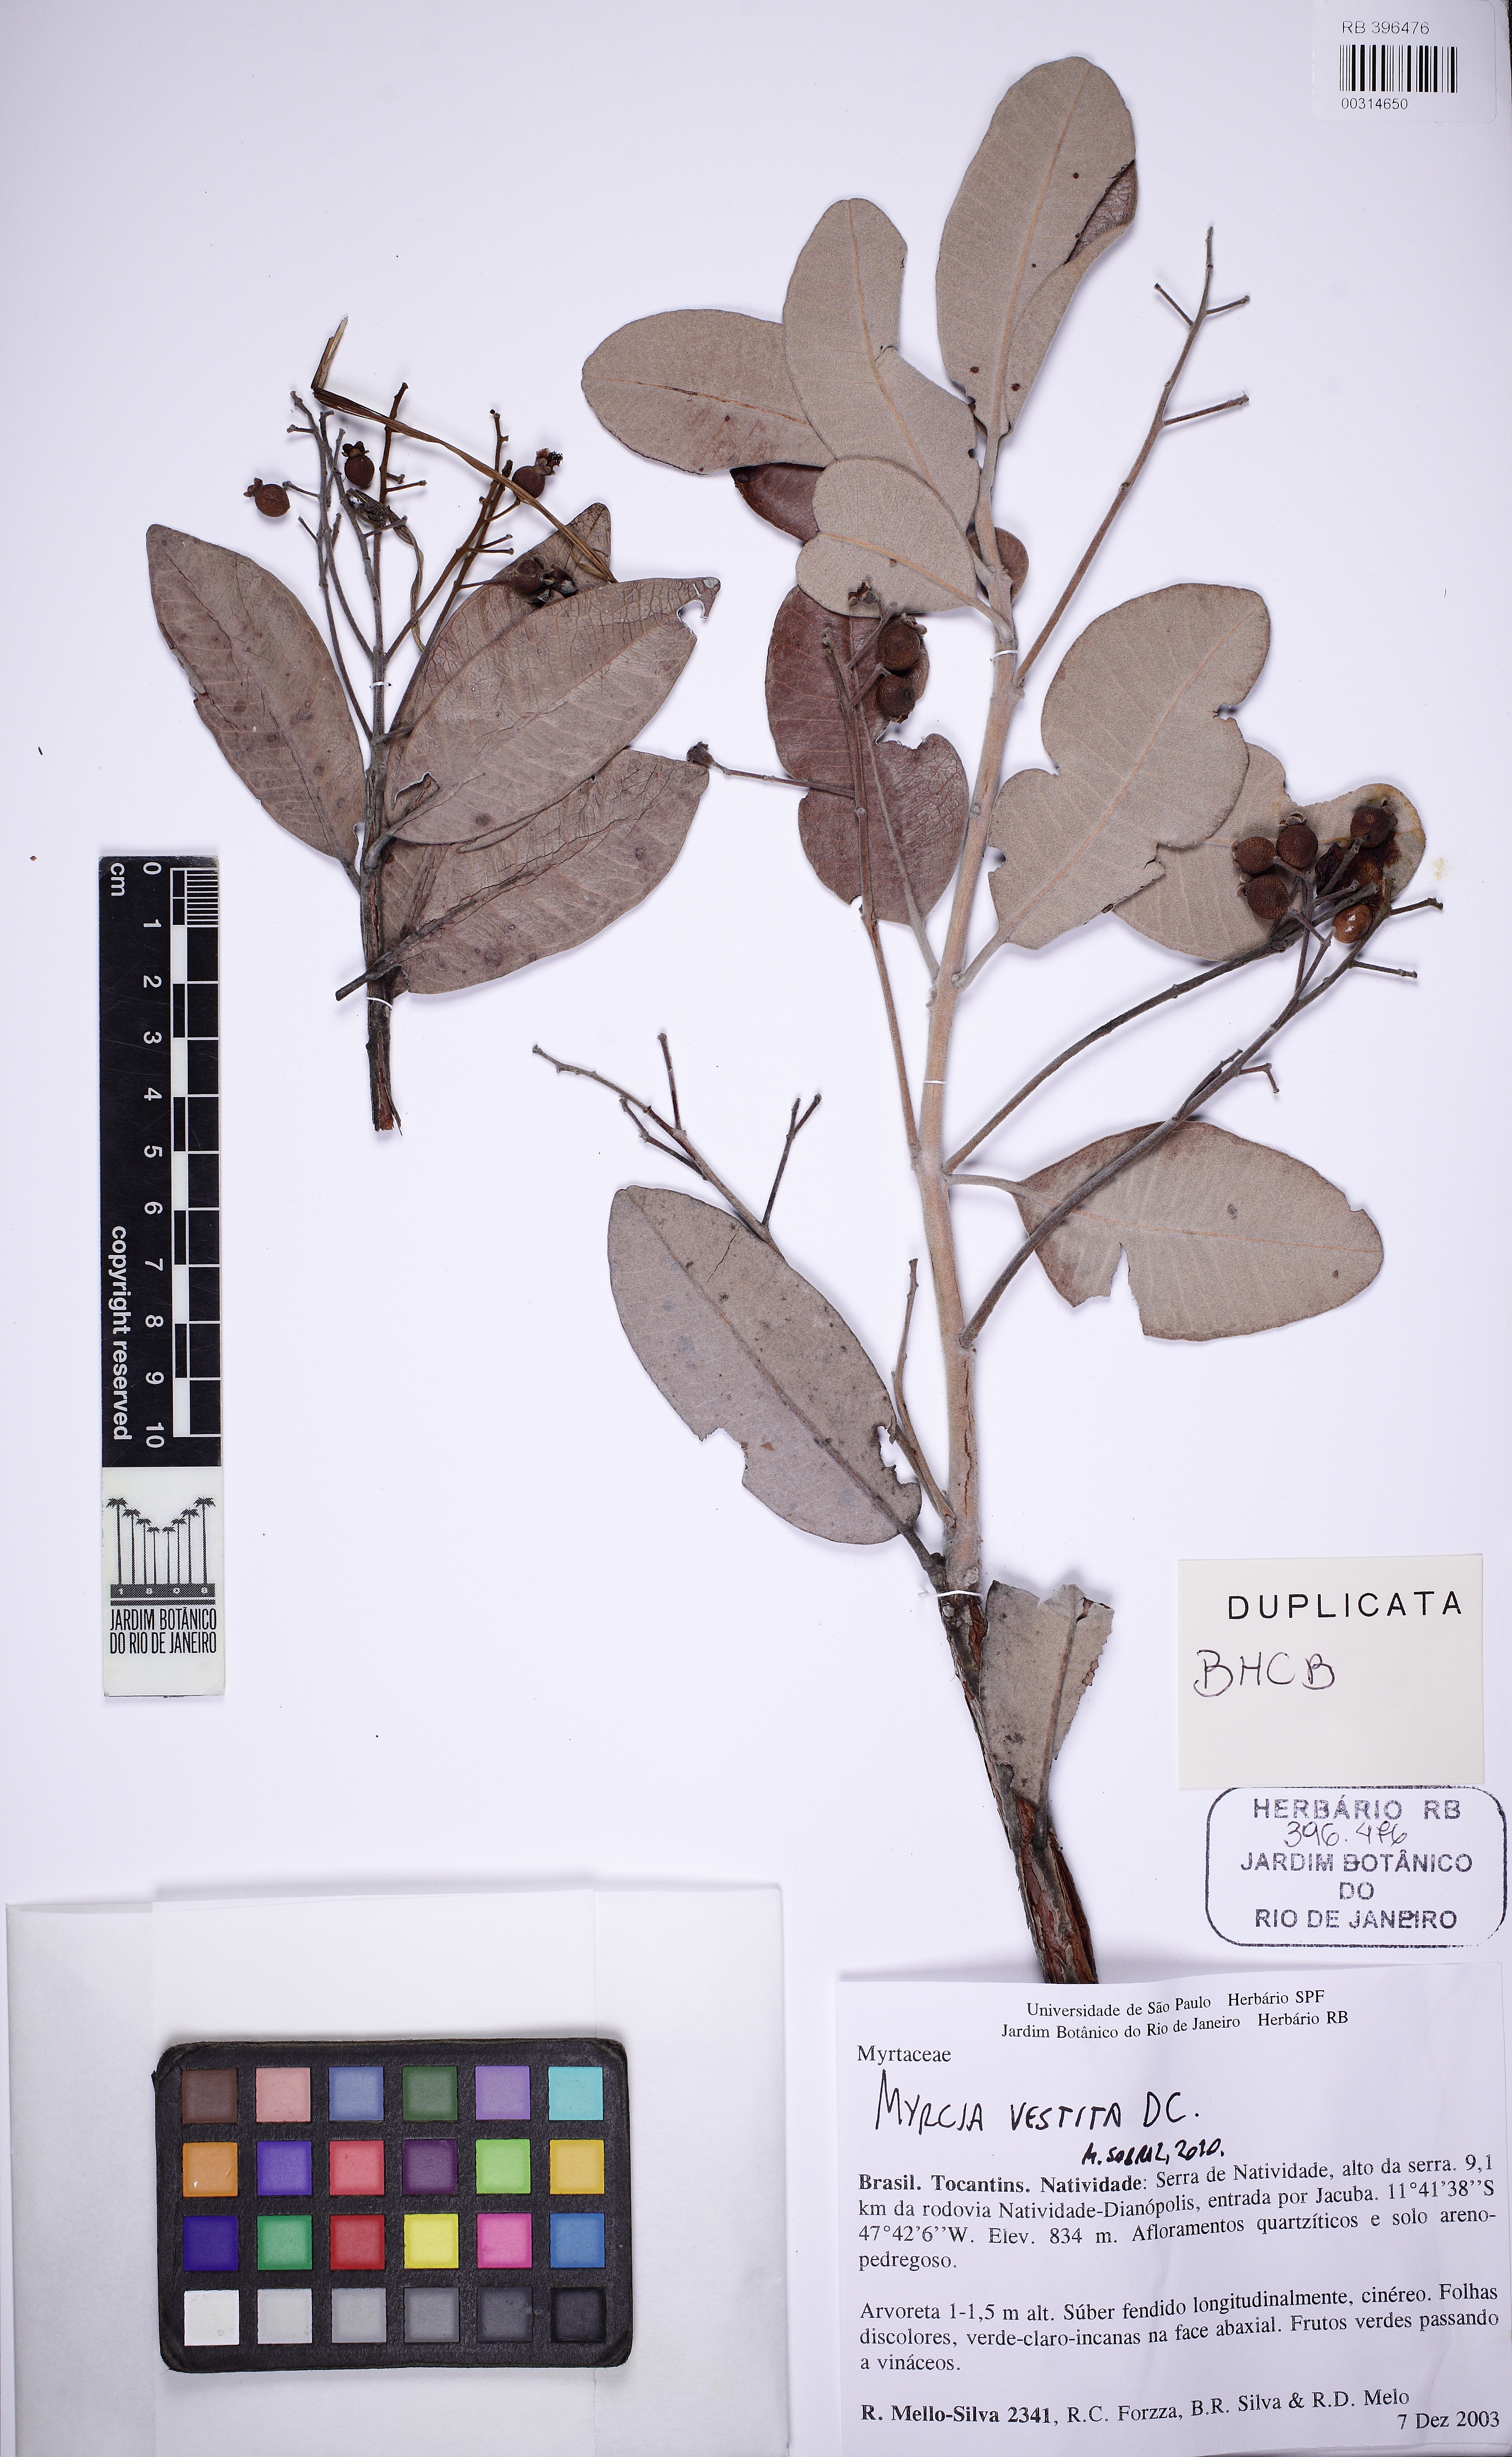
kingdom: Plantae
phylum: Tracheophyta
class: Magnoliopsida
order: Myrtales
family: Myrtaceae
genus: Myrcia
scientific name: Myrcia tortuosa
